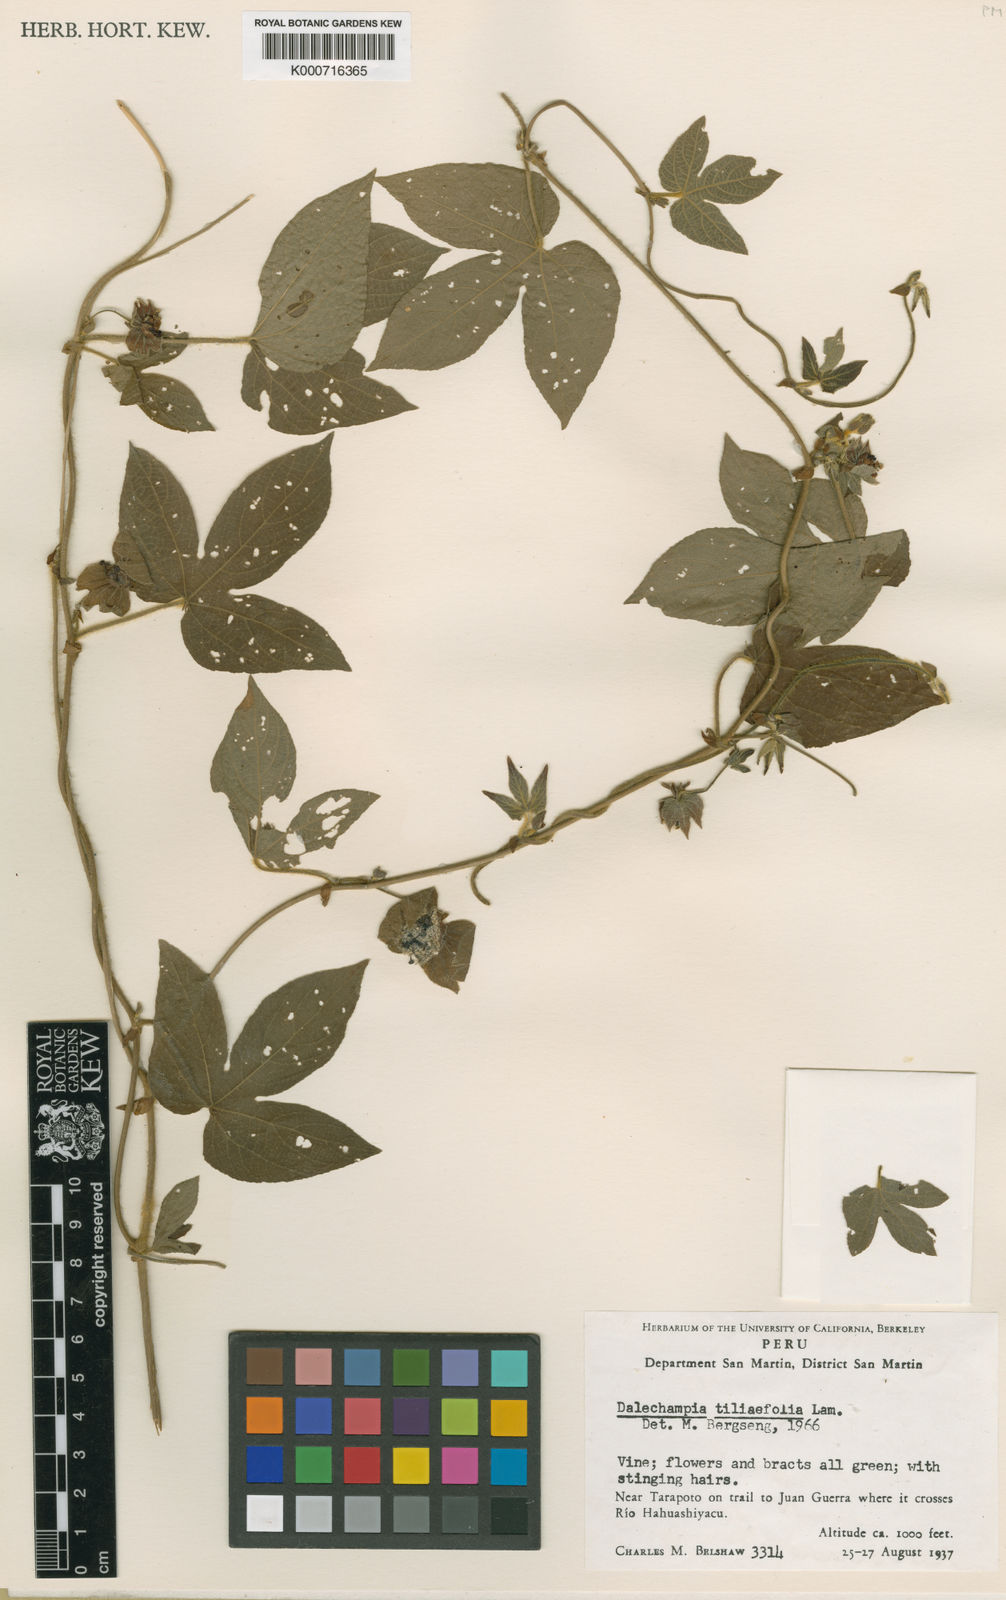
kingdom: Plantae
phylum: Tracheophyta
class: Magnoliopsida
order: Malpighiales
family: Euphorbiaceae
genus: Dalechampia
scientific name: Dalechampia tiliifolia
